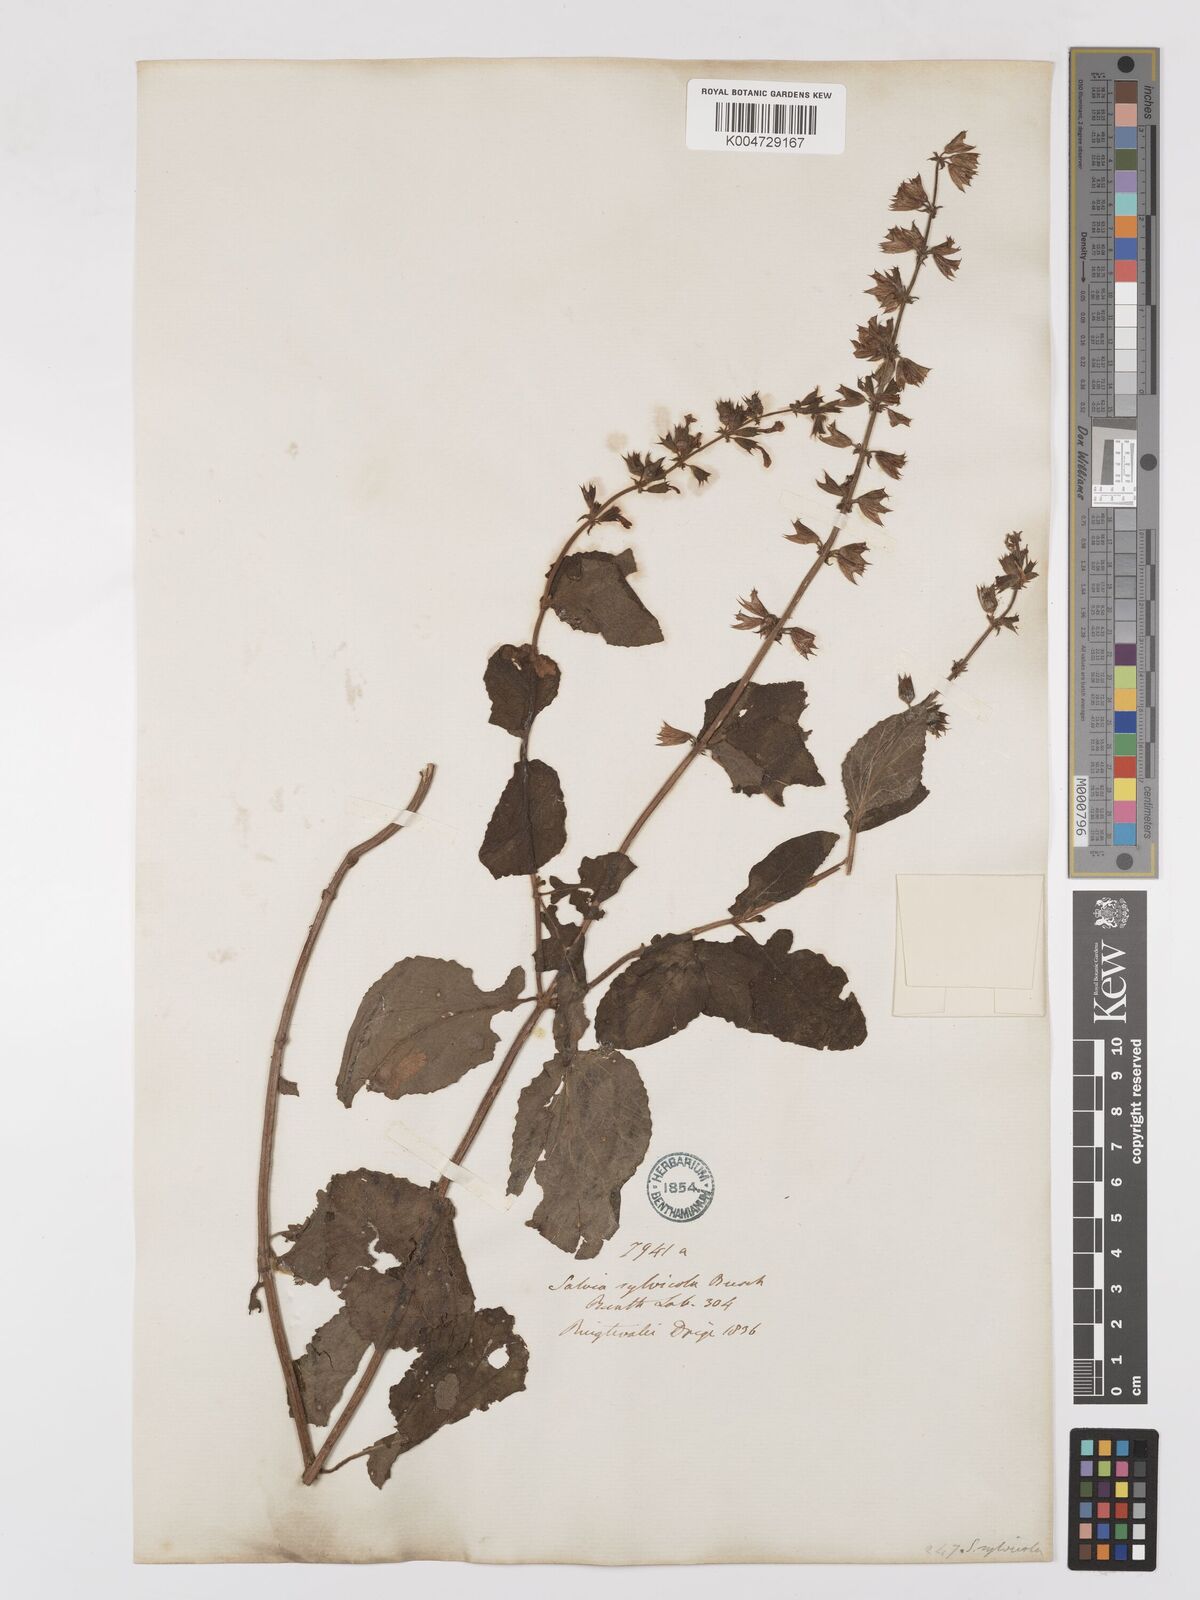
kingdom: Plantae
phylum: Tracheophyta
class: Magnoliopsida
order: Lamiales
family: Lamiaceae
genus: Salvia
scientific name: Salvia aurita
